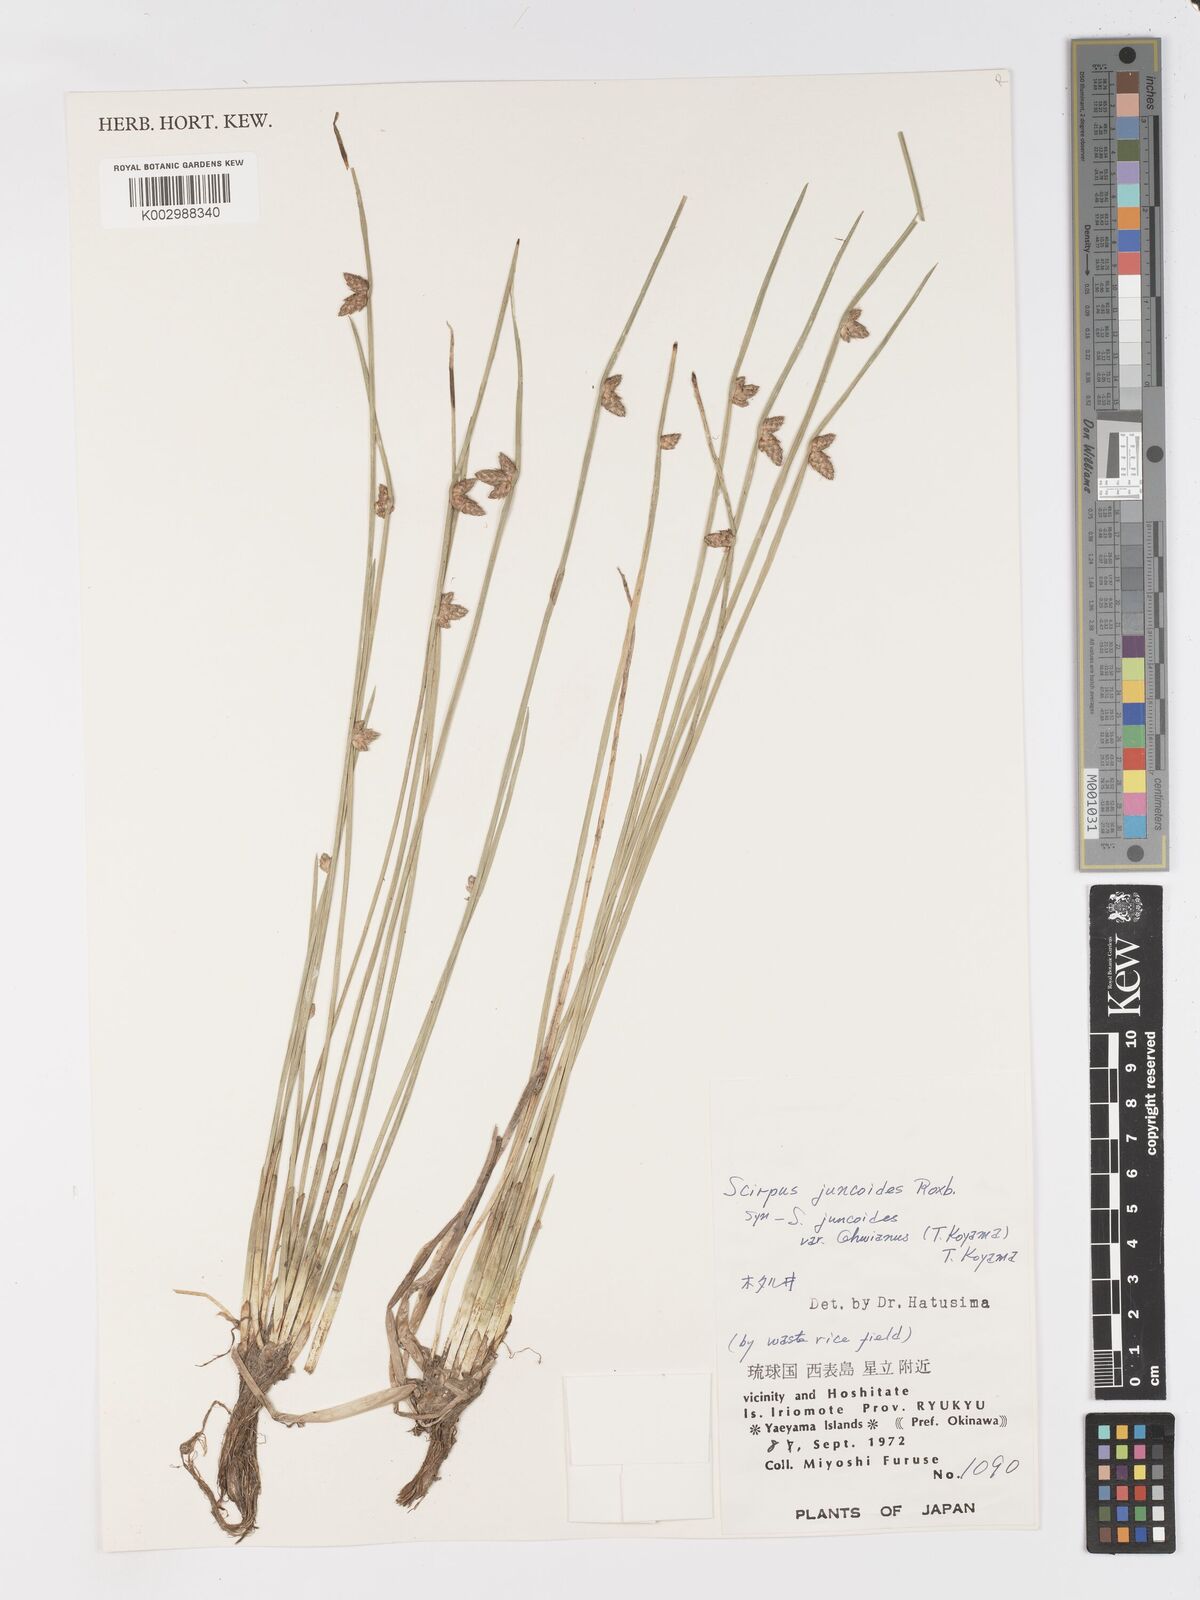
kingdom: Plantae
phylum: Tracheophyta
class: Liliopsida
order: Poales
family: Cyperaceae
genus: Schoenoplectiella
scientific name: Schoenoplectiella juncoides
